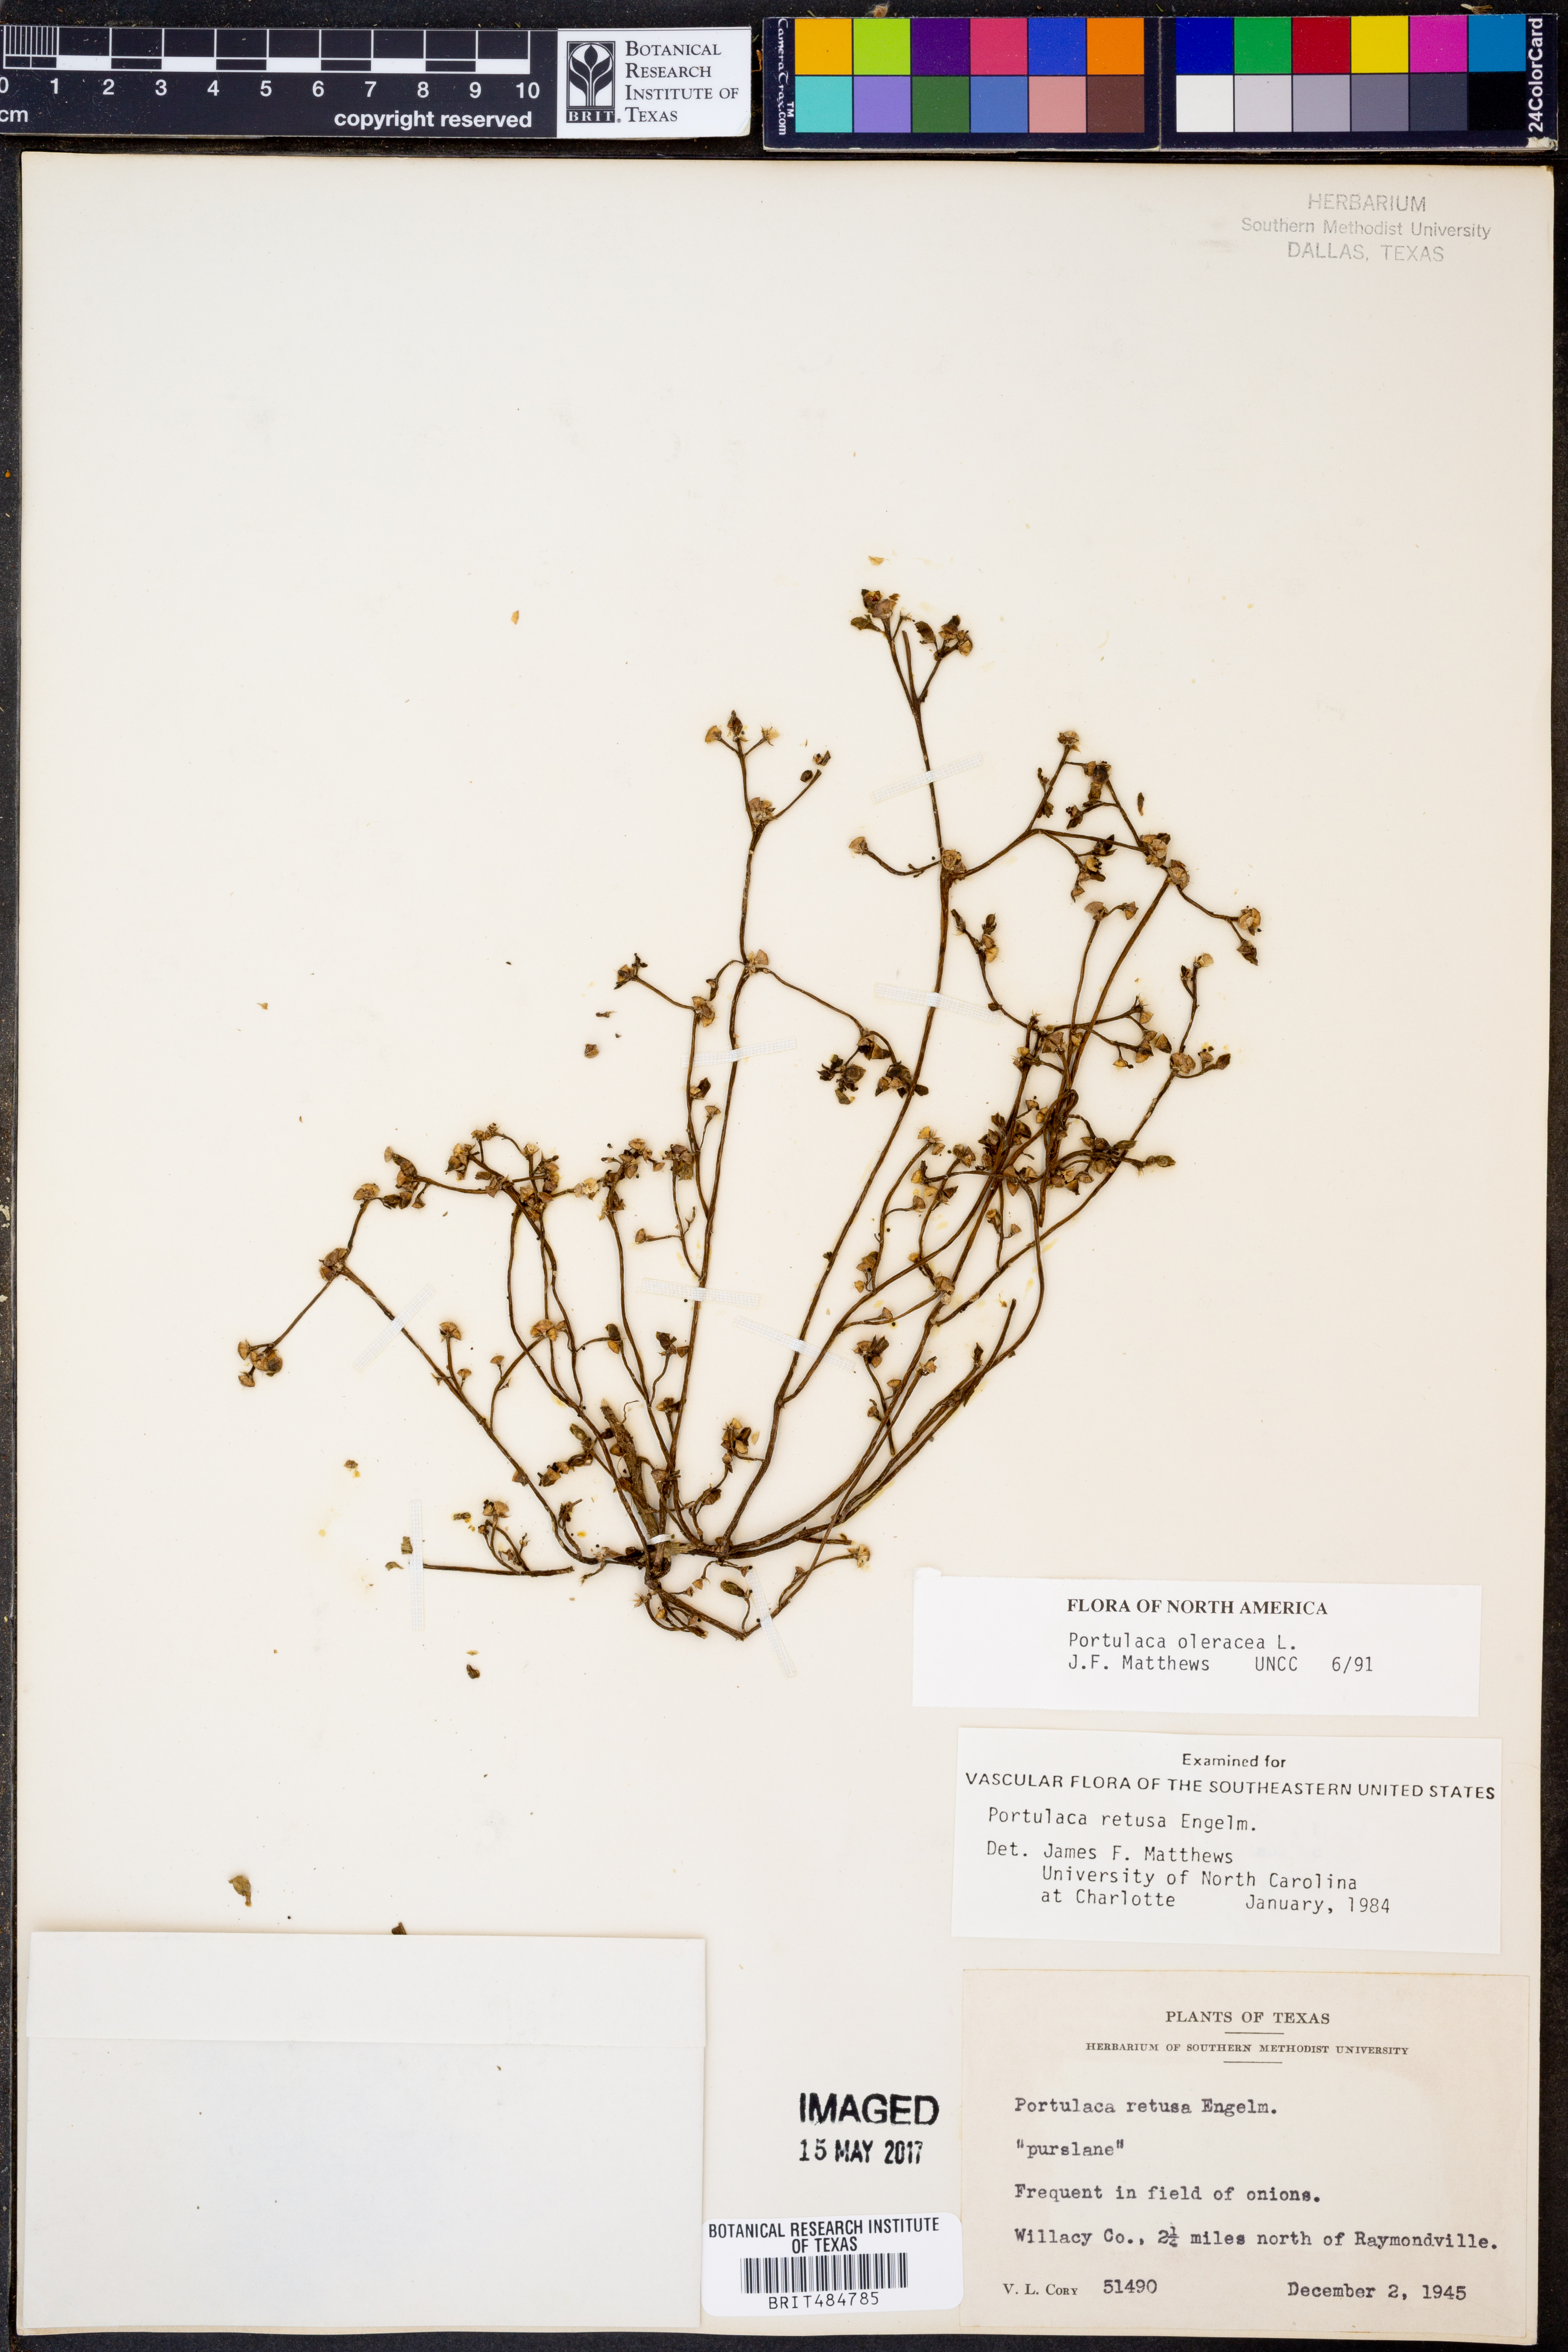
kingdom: Plantae
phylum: Tracheophyta
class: Magnoliopsida
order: Caryophyllales
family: Portulacaceae
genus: Portulaca
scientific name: Portulaca oleracea
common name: Common purslane
